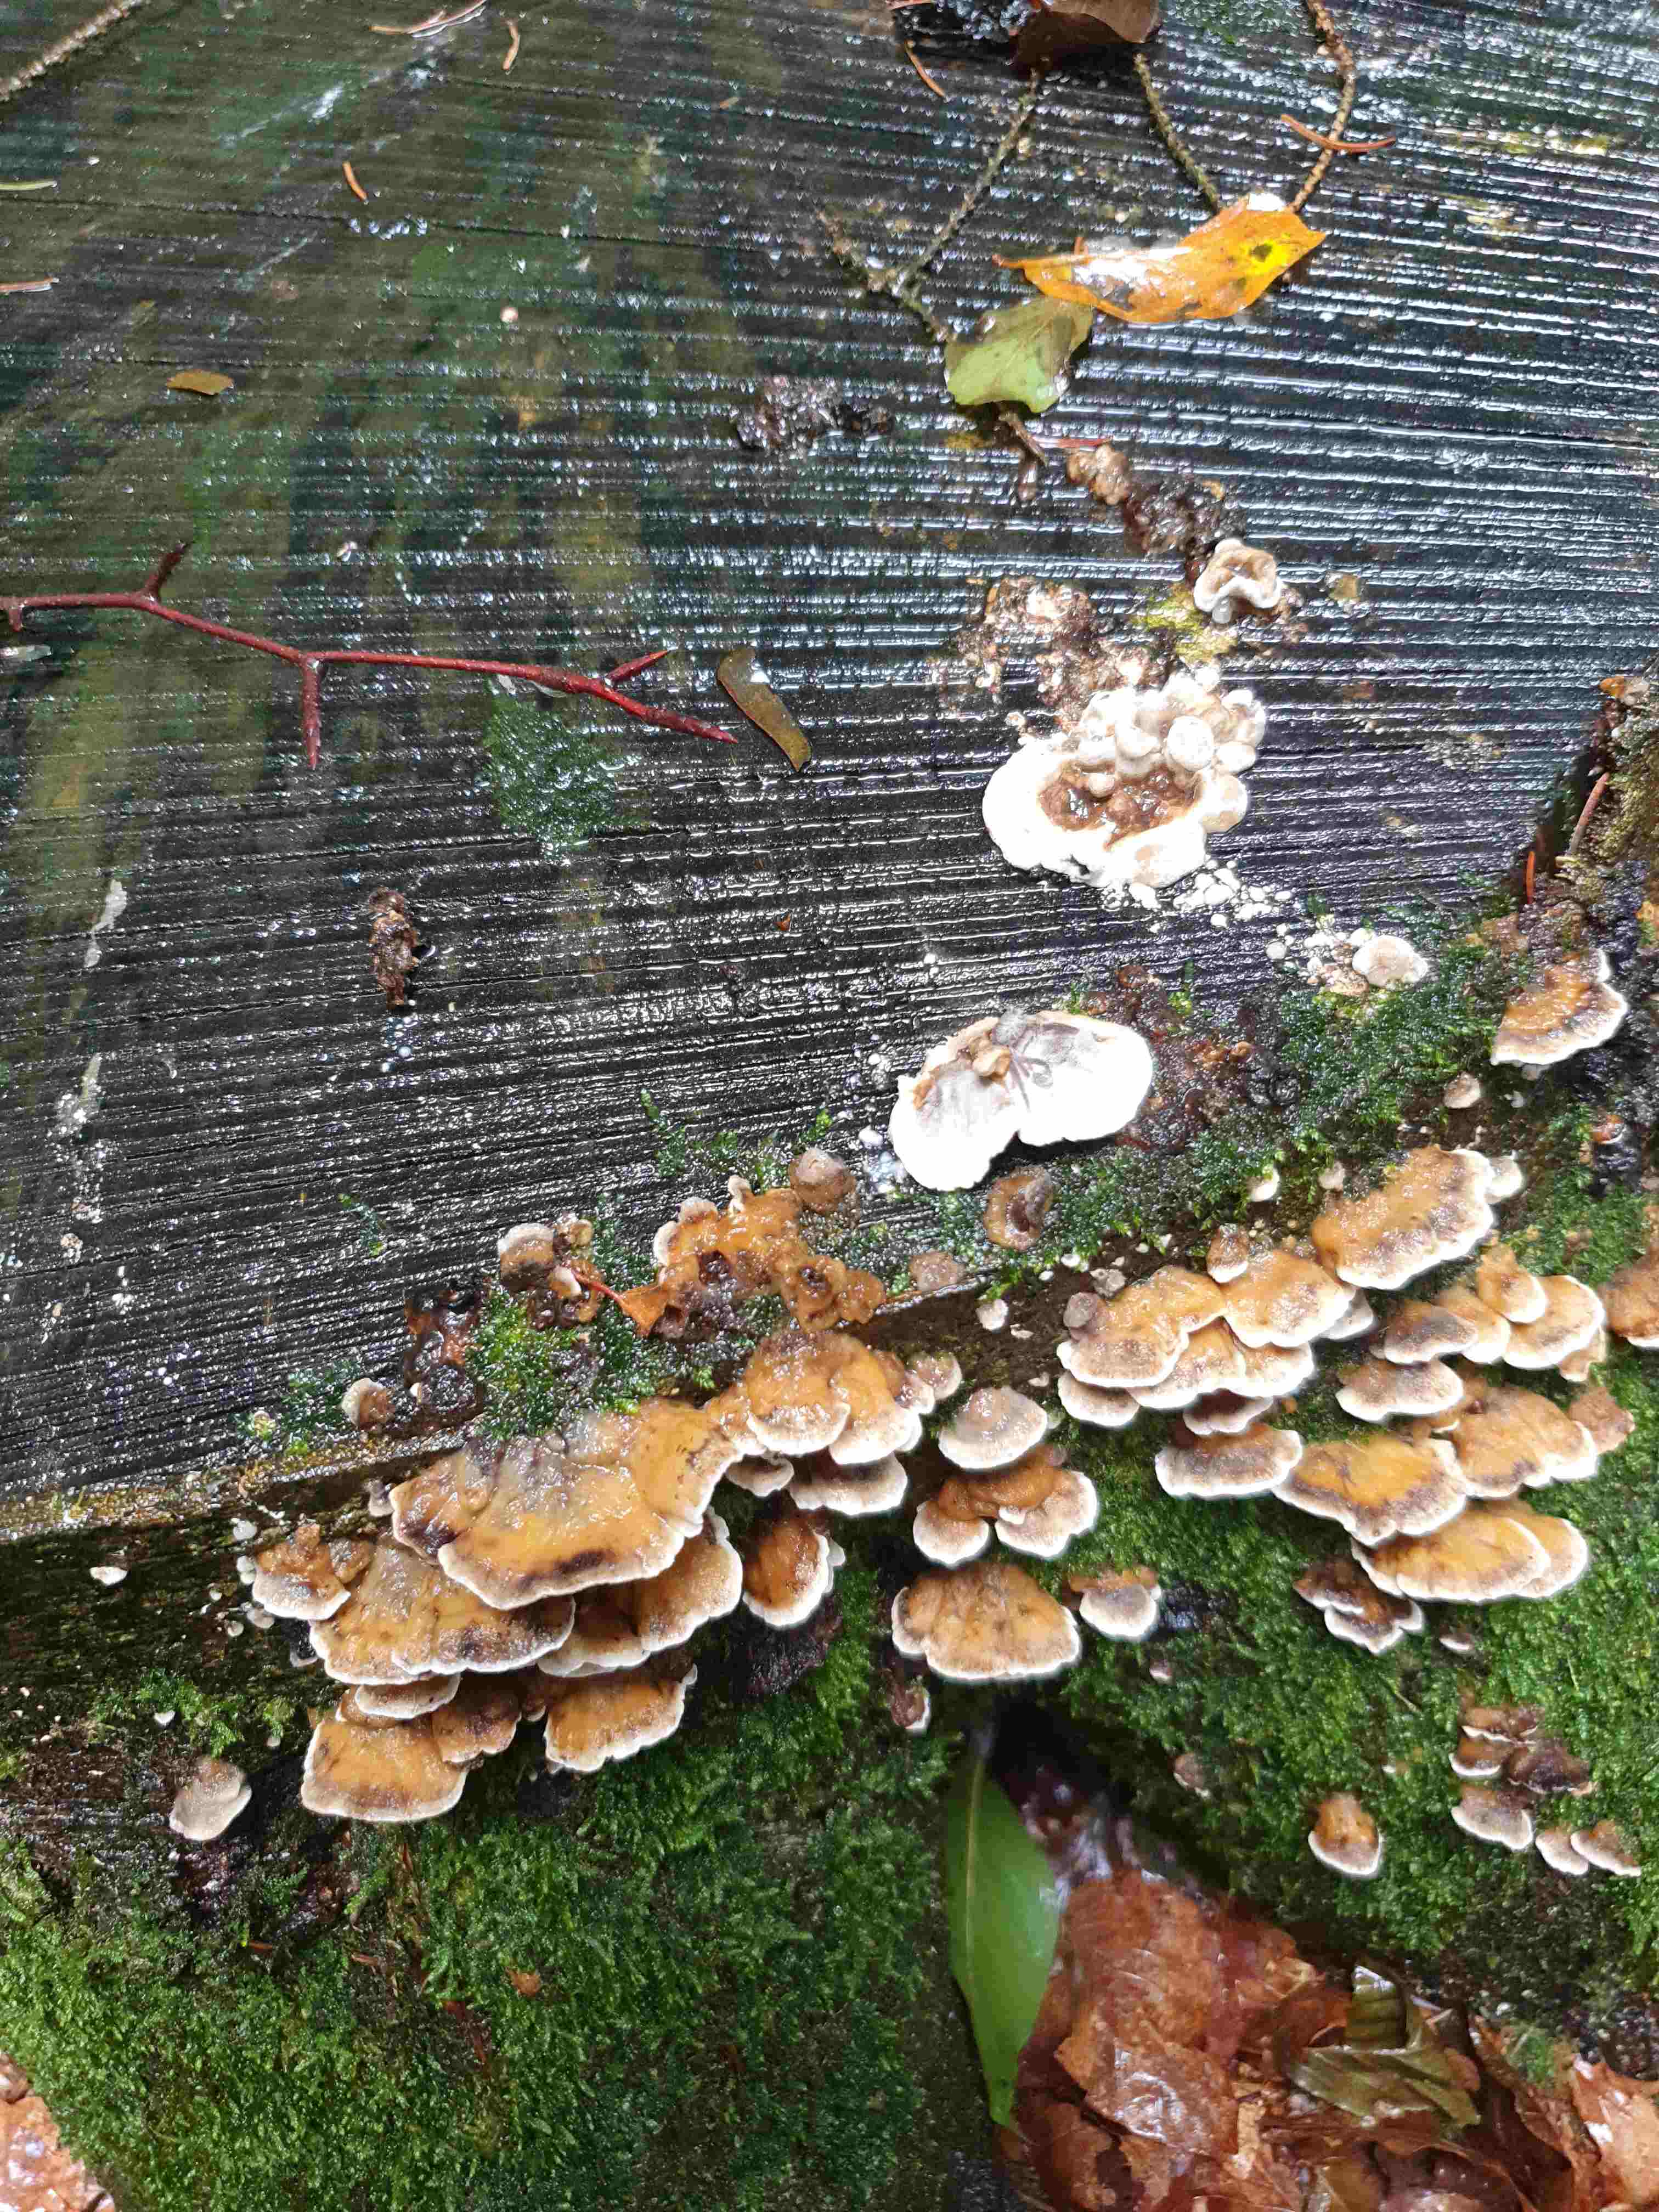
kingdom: Fungi
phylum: Basidiomycota
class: Agaricomycetes
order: Polyporales
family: Phanerochaetaceae
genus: Bjerkandera
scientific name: Bjerkandera adusta
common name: sveden sodporesvamp
